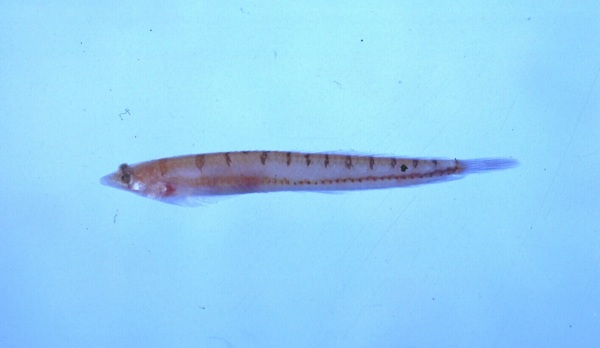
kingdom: Animalia
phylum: Chordata
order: Perciformes
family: Creediidae
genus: Limnichthys
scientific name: Limnichthys nitidus
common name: Donaldson's sandburrower
